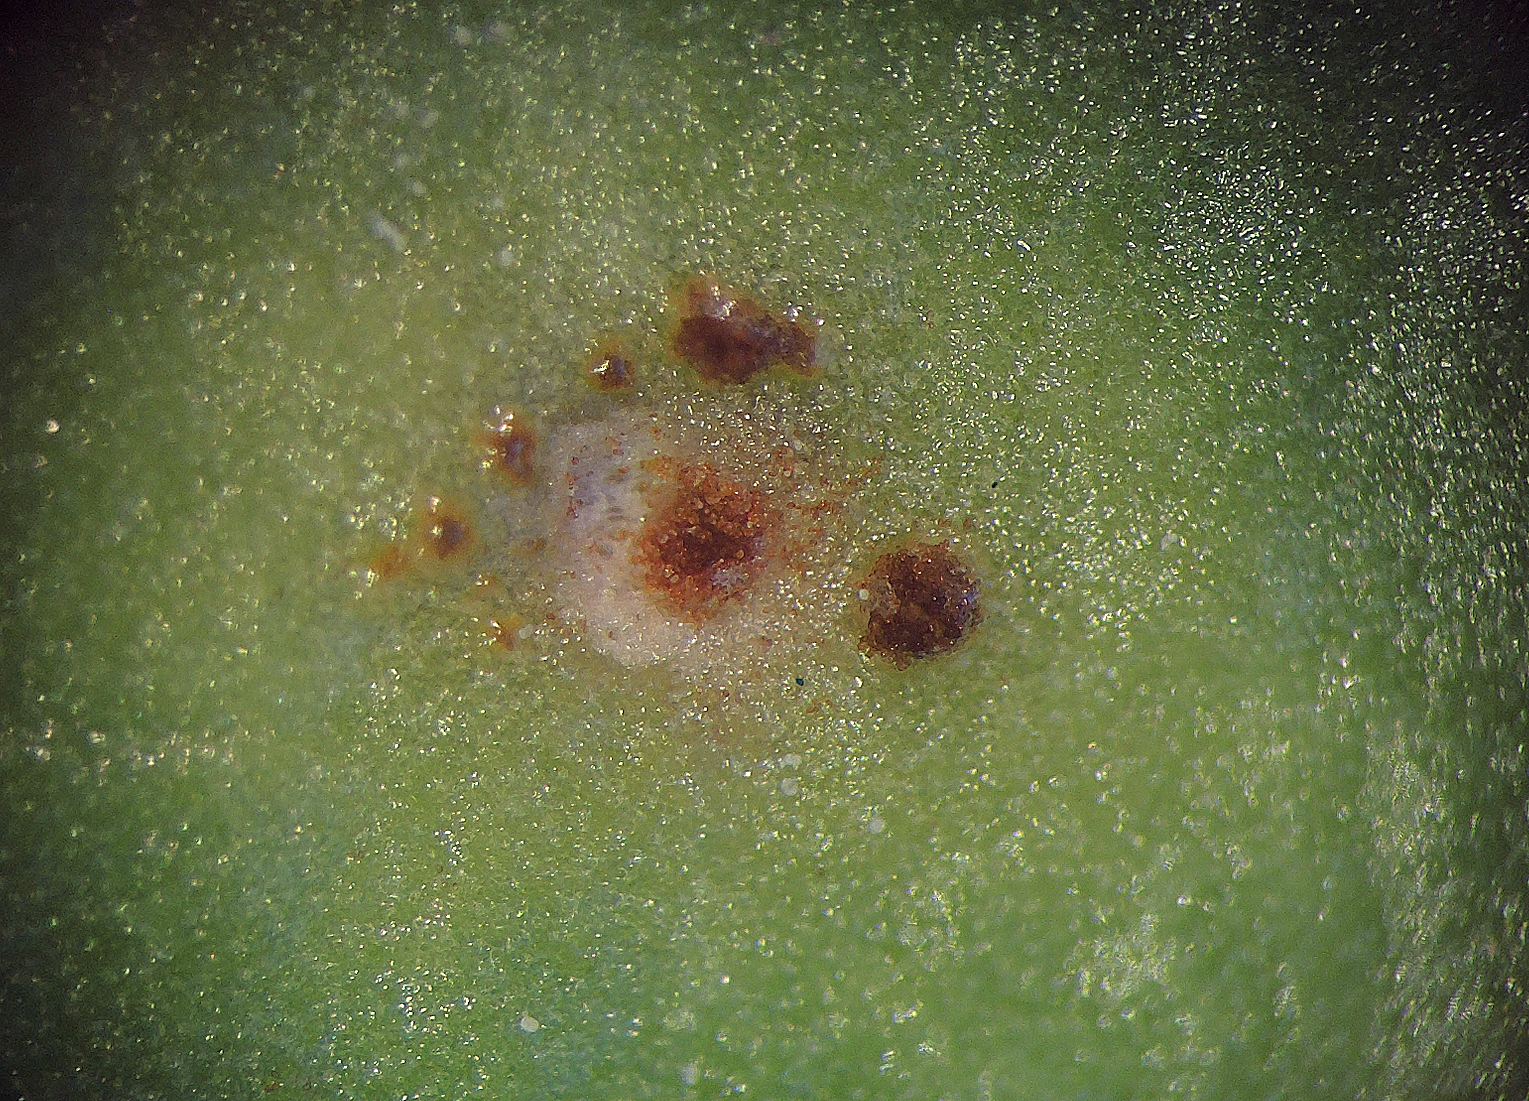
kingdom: Fungi
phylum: Basidiomycota
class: Pucciniomycetes
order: Pucciniales
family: Pucciniaceae
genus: Uromyces
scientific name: Uromyces betae
